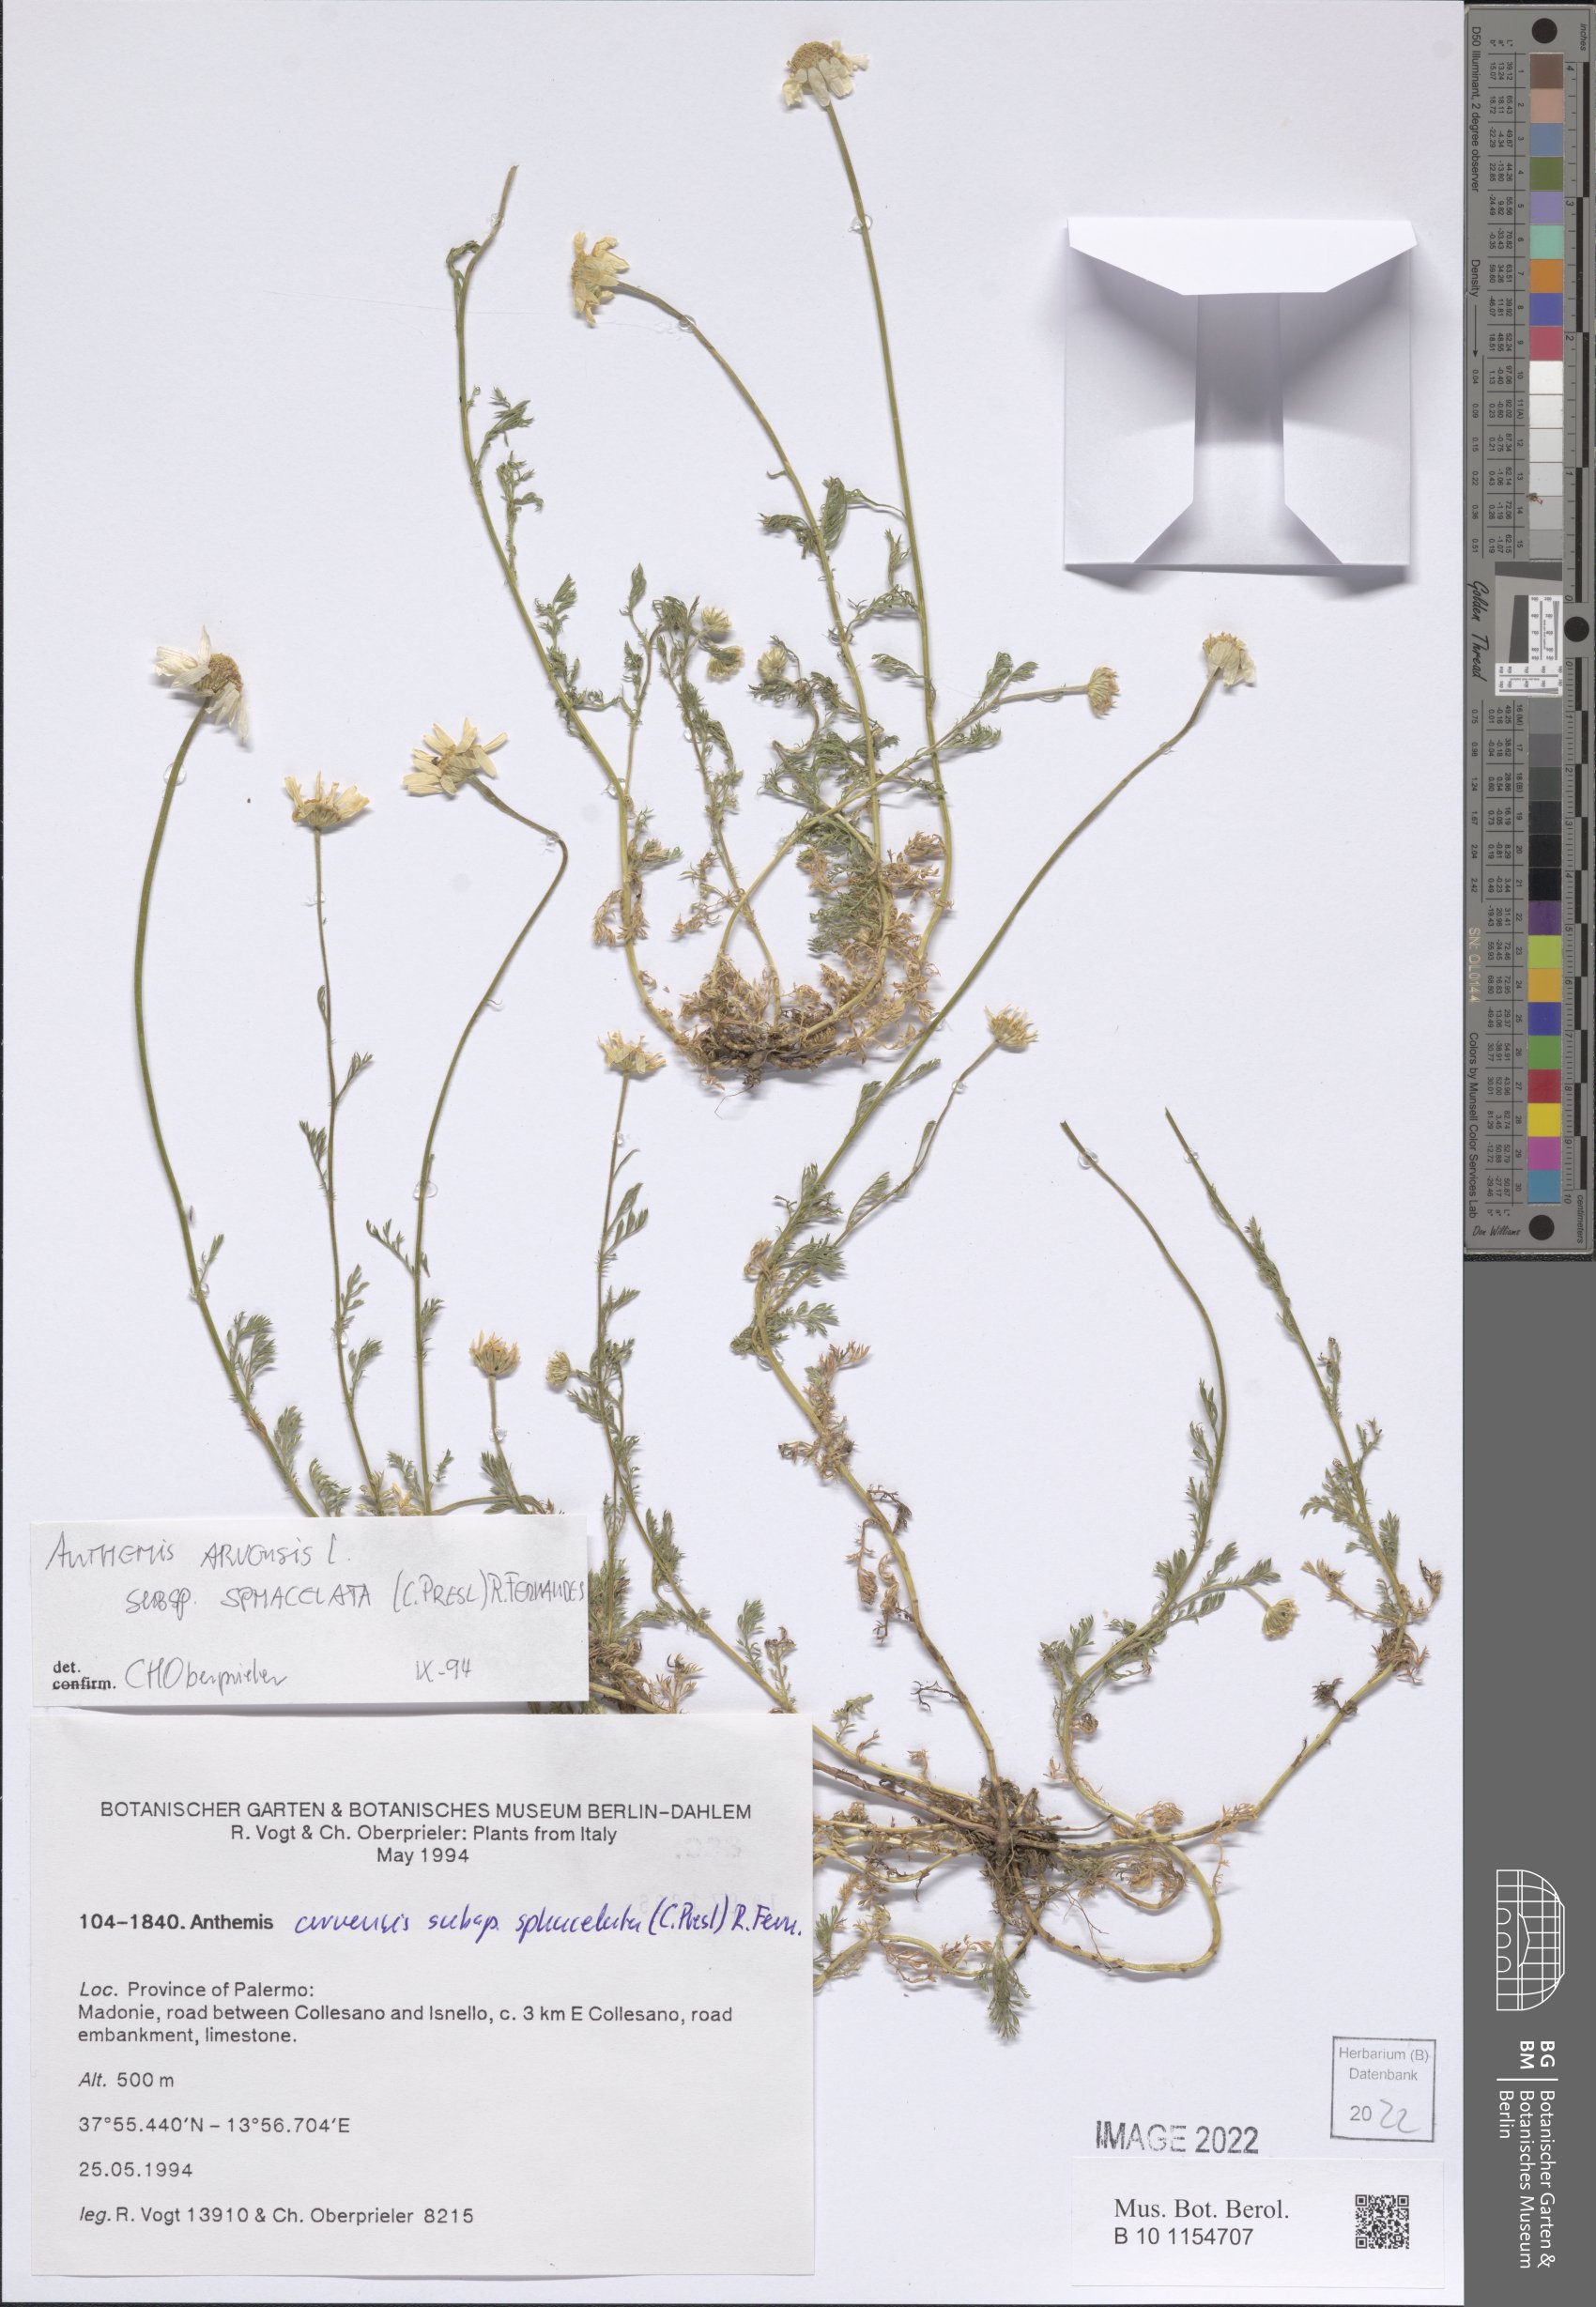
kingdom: Plantae
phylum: Tracheophyta
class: Magnoliopsida
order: Asterales
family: Asteraceae
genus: Anthemis
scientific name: Anthemis arvensis
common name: Corn chamomile
